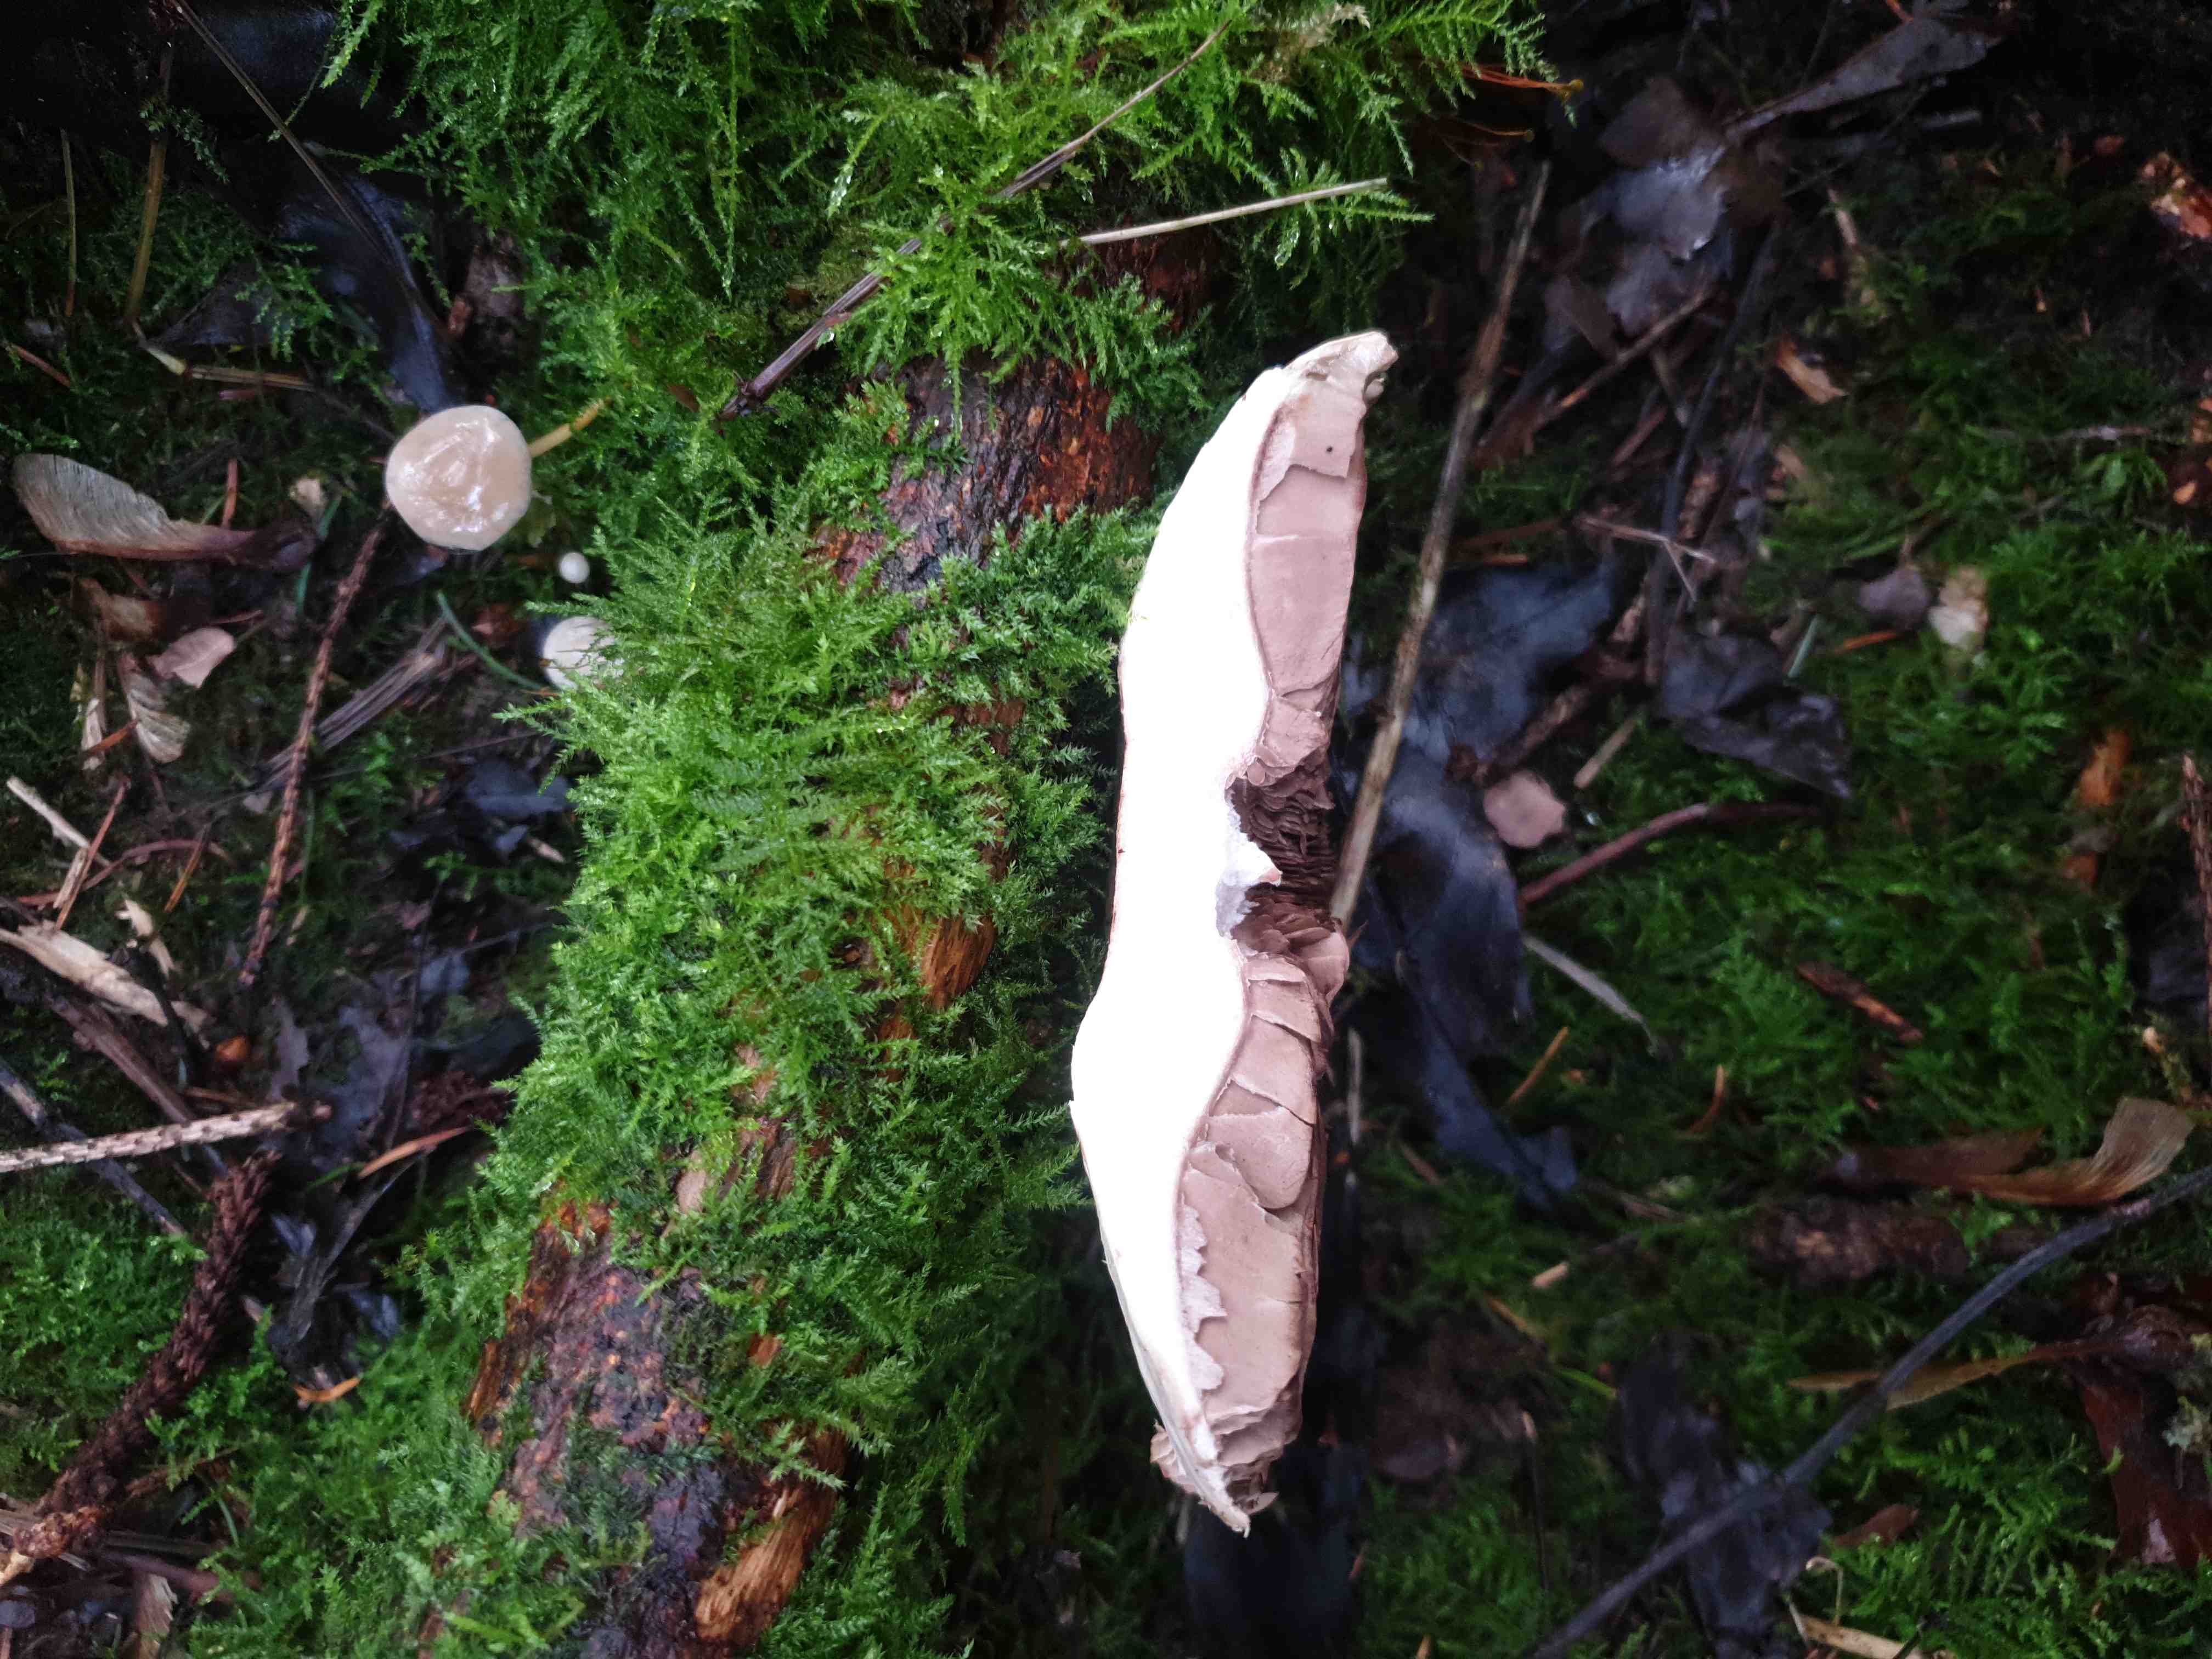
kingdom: Fungi
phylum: Basidiomycota
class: Agaricomycetes
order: Agaricales
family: Agaricaceae
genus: Agaricus
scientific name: Agaricus
